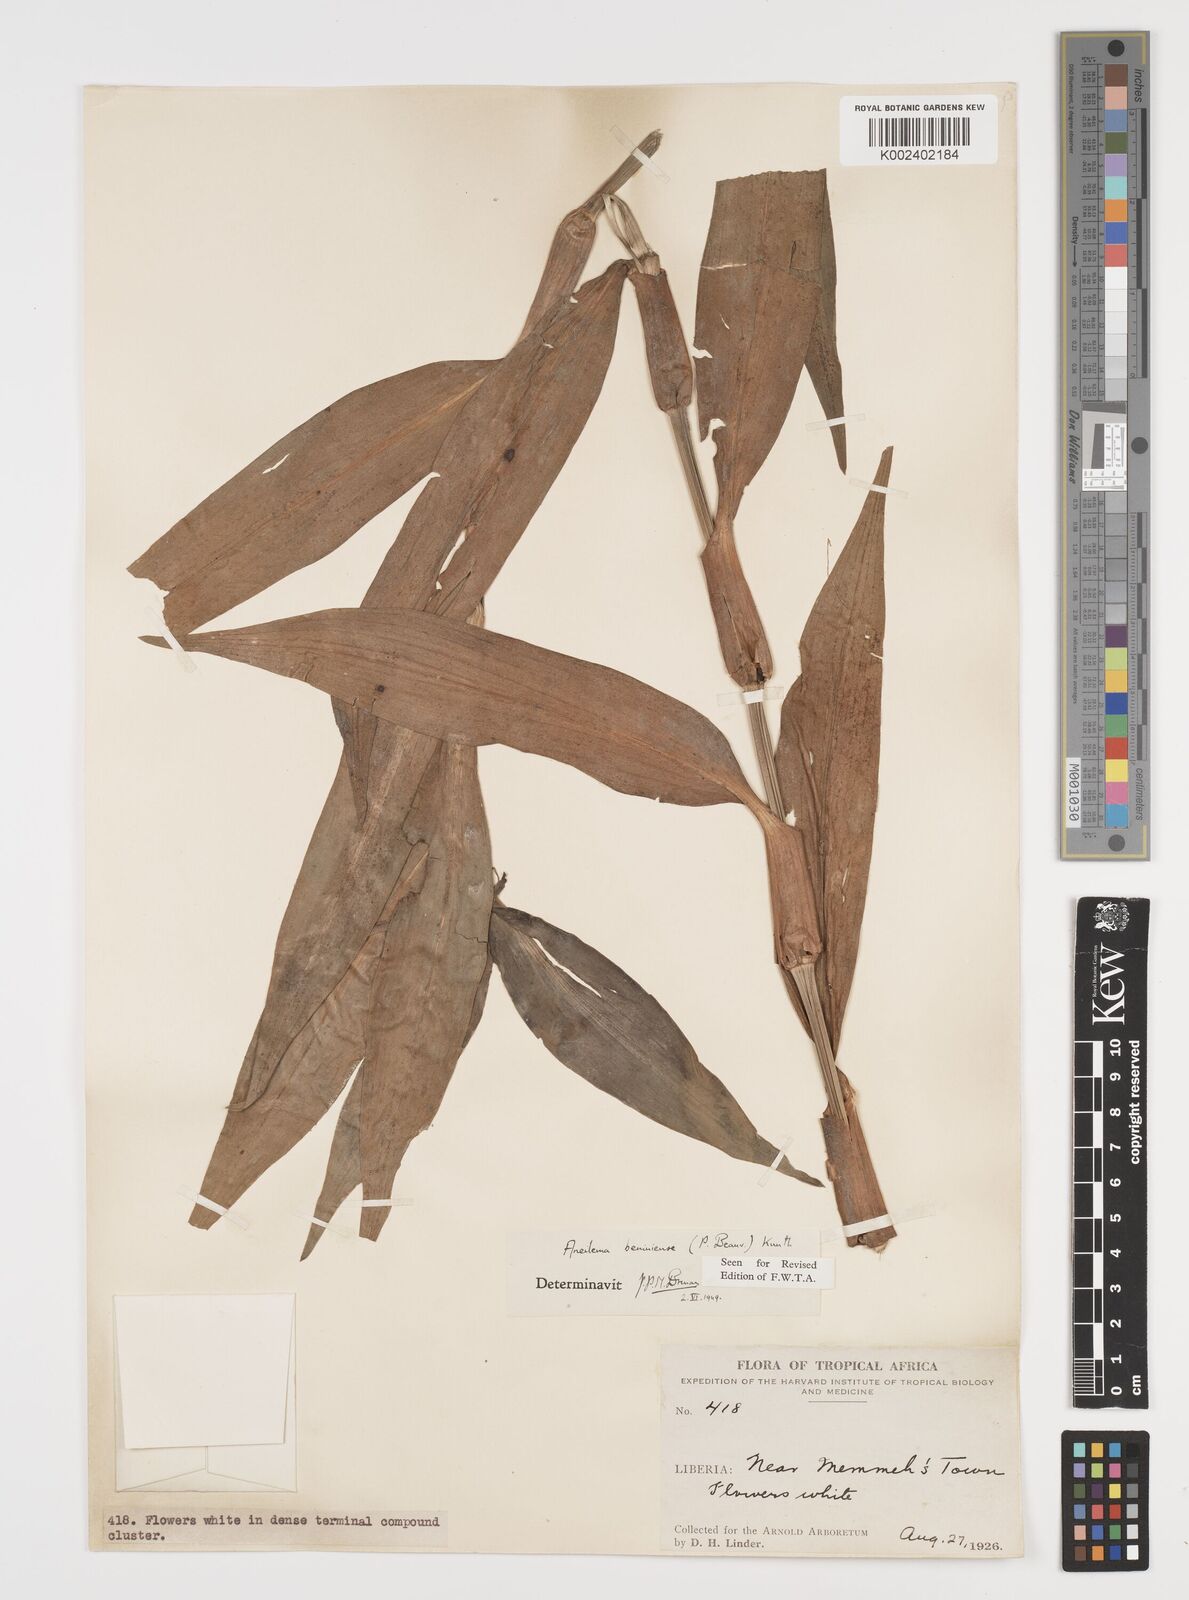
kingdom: Plantae
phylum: Tracheophyta
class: Liliopsida
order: Commelinales
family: Commelinaceae
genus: Aneilema
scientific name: Aneilema beniniense
